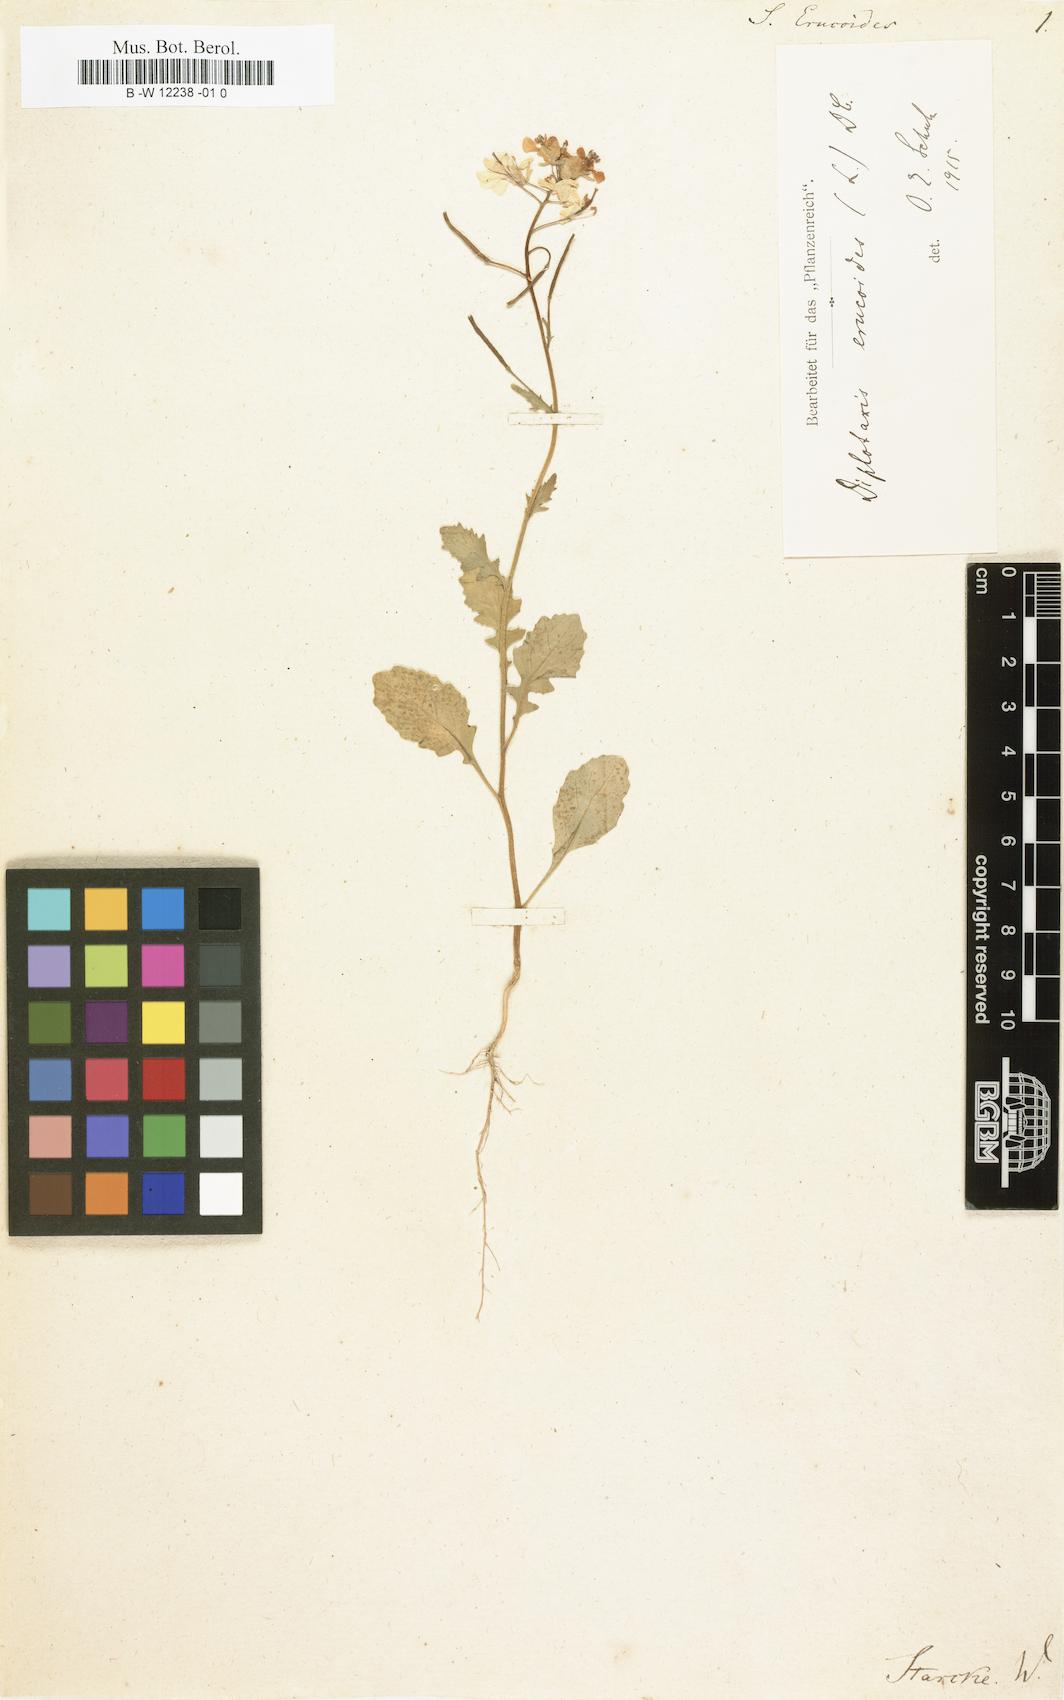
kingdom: Plantae
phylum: Tracheophyta
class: Magnoliopsida
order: Brassicales
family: Brassicaceae
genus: Diplotaxis
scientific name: Diplotaxis erucoides
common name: White rocket
